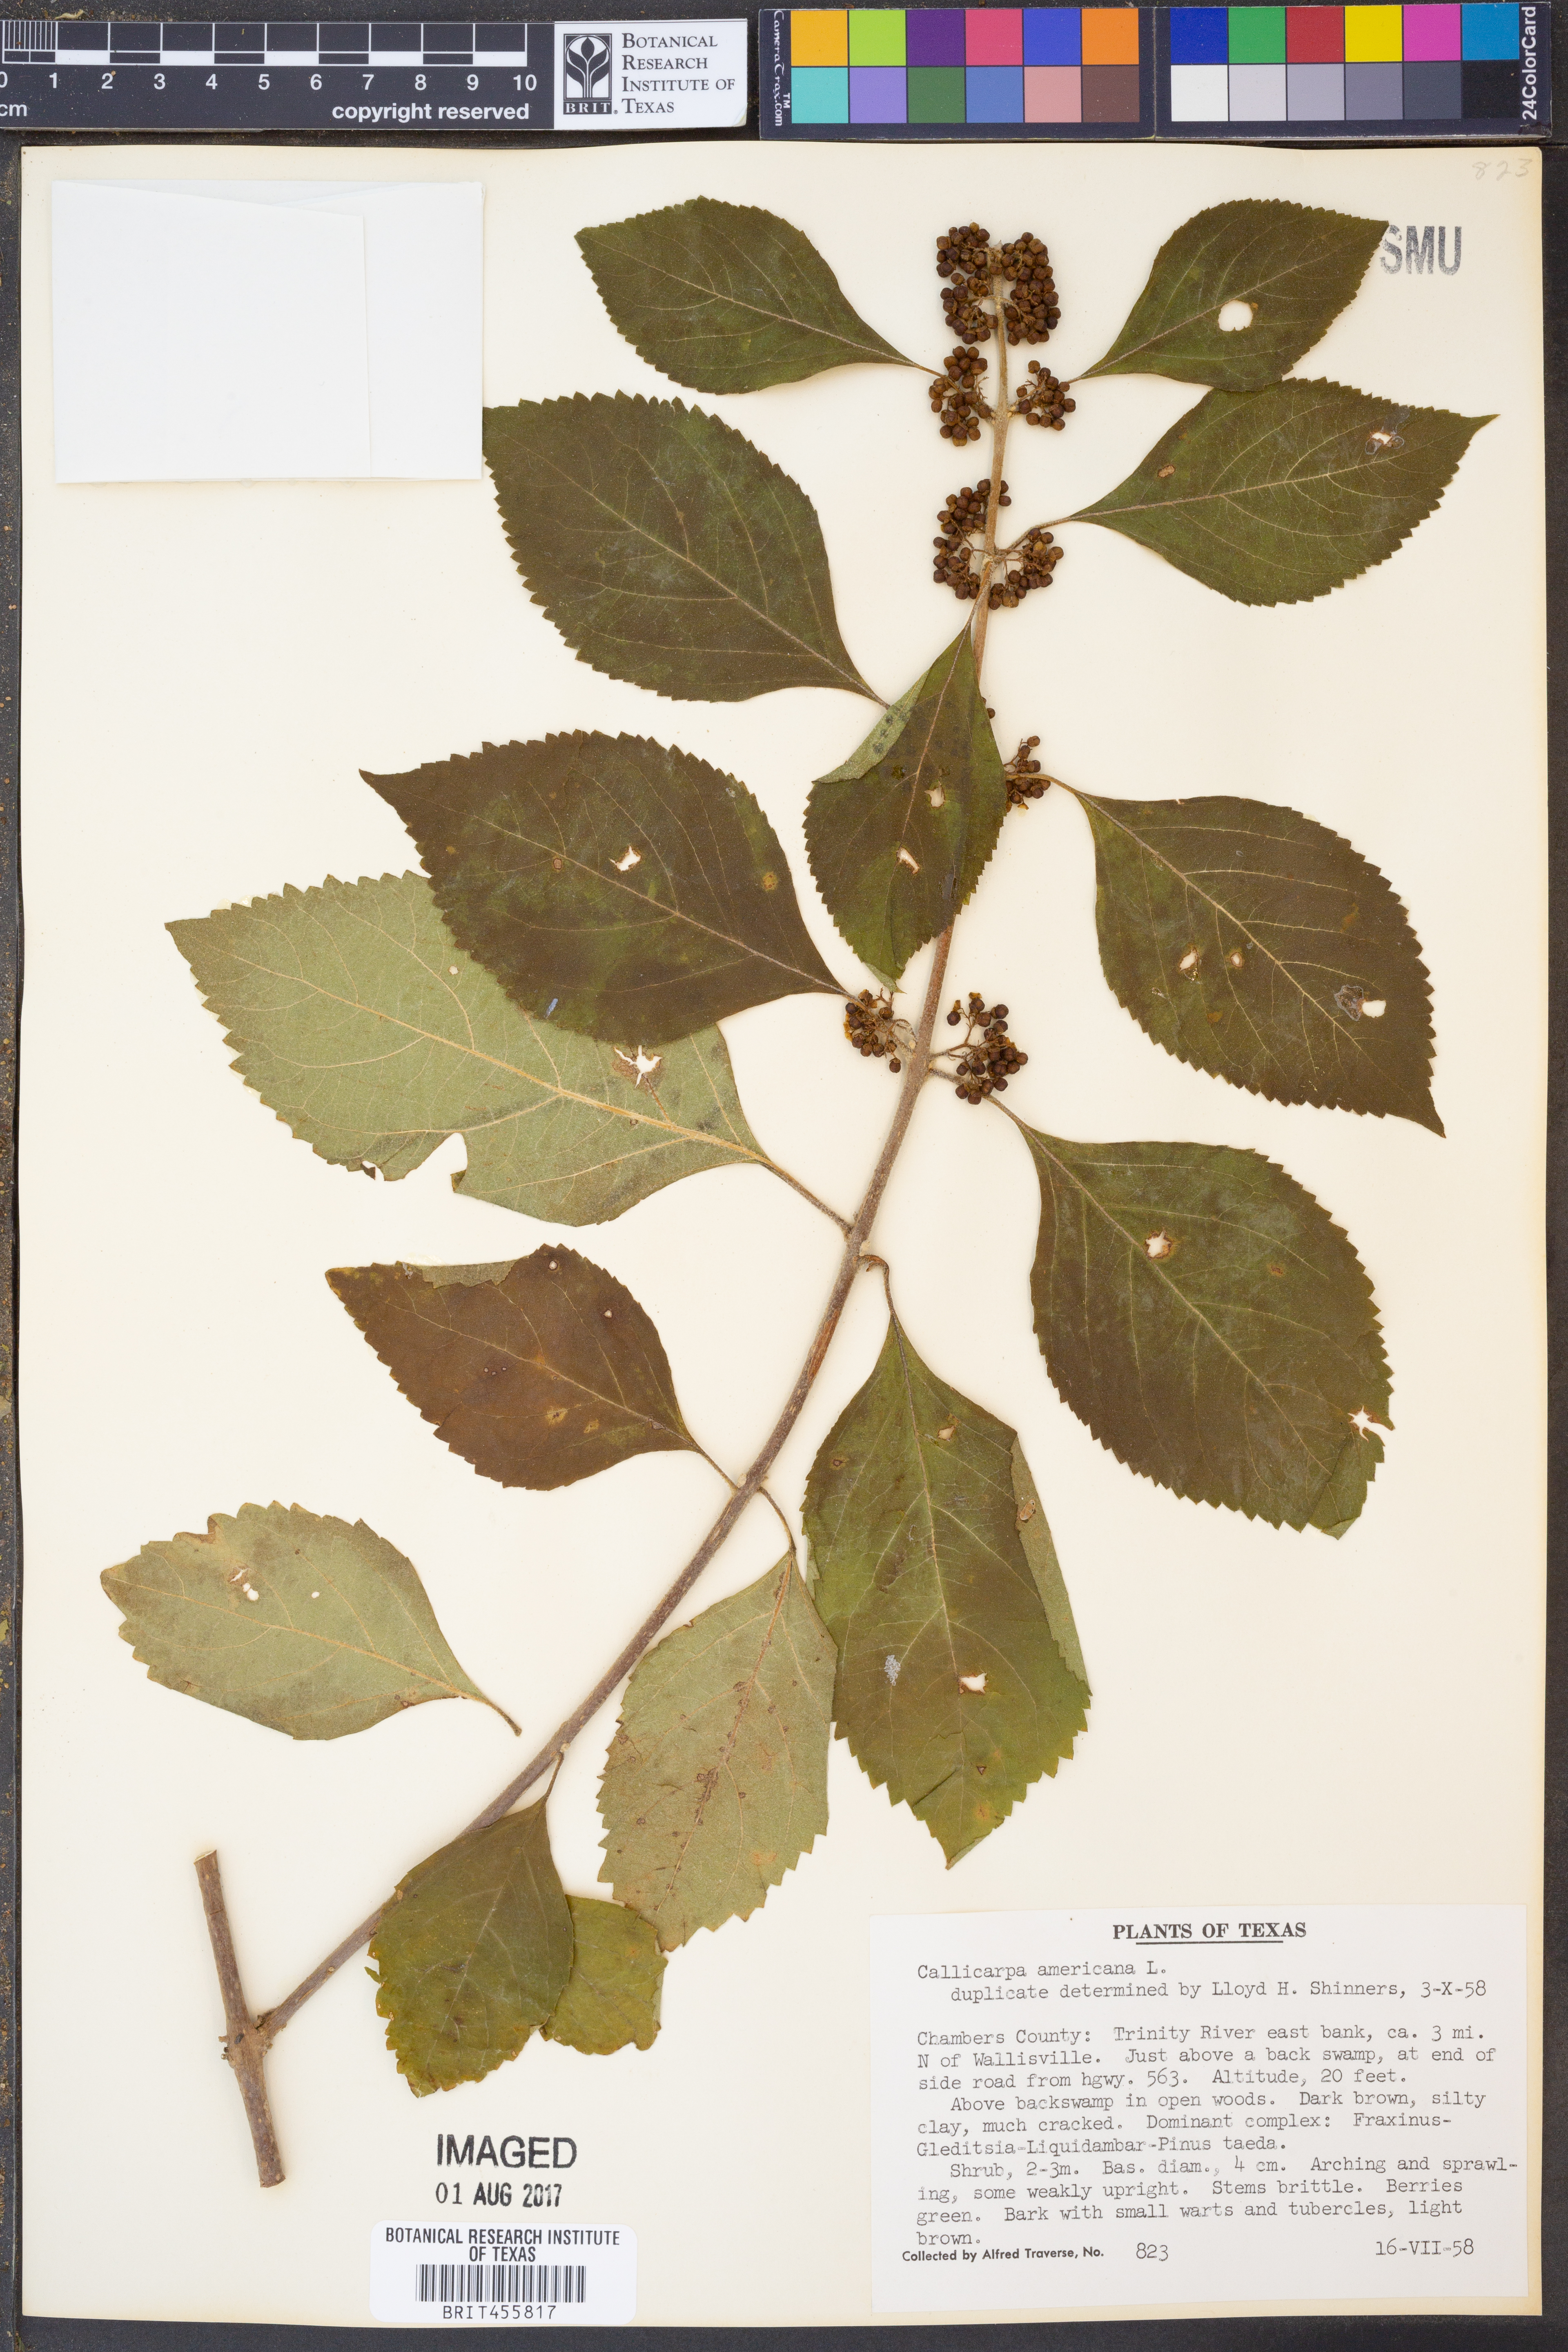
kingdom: Plantae
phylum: Tracheophyta
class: Magnoliopsida
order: Lamiales
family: Lamiaceae
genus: Callicarpa
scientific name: Callicarpa americana
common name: American beautyberry
